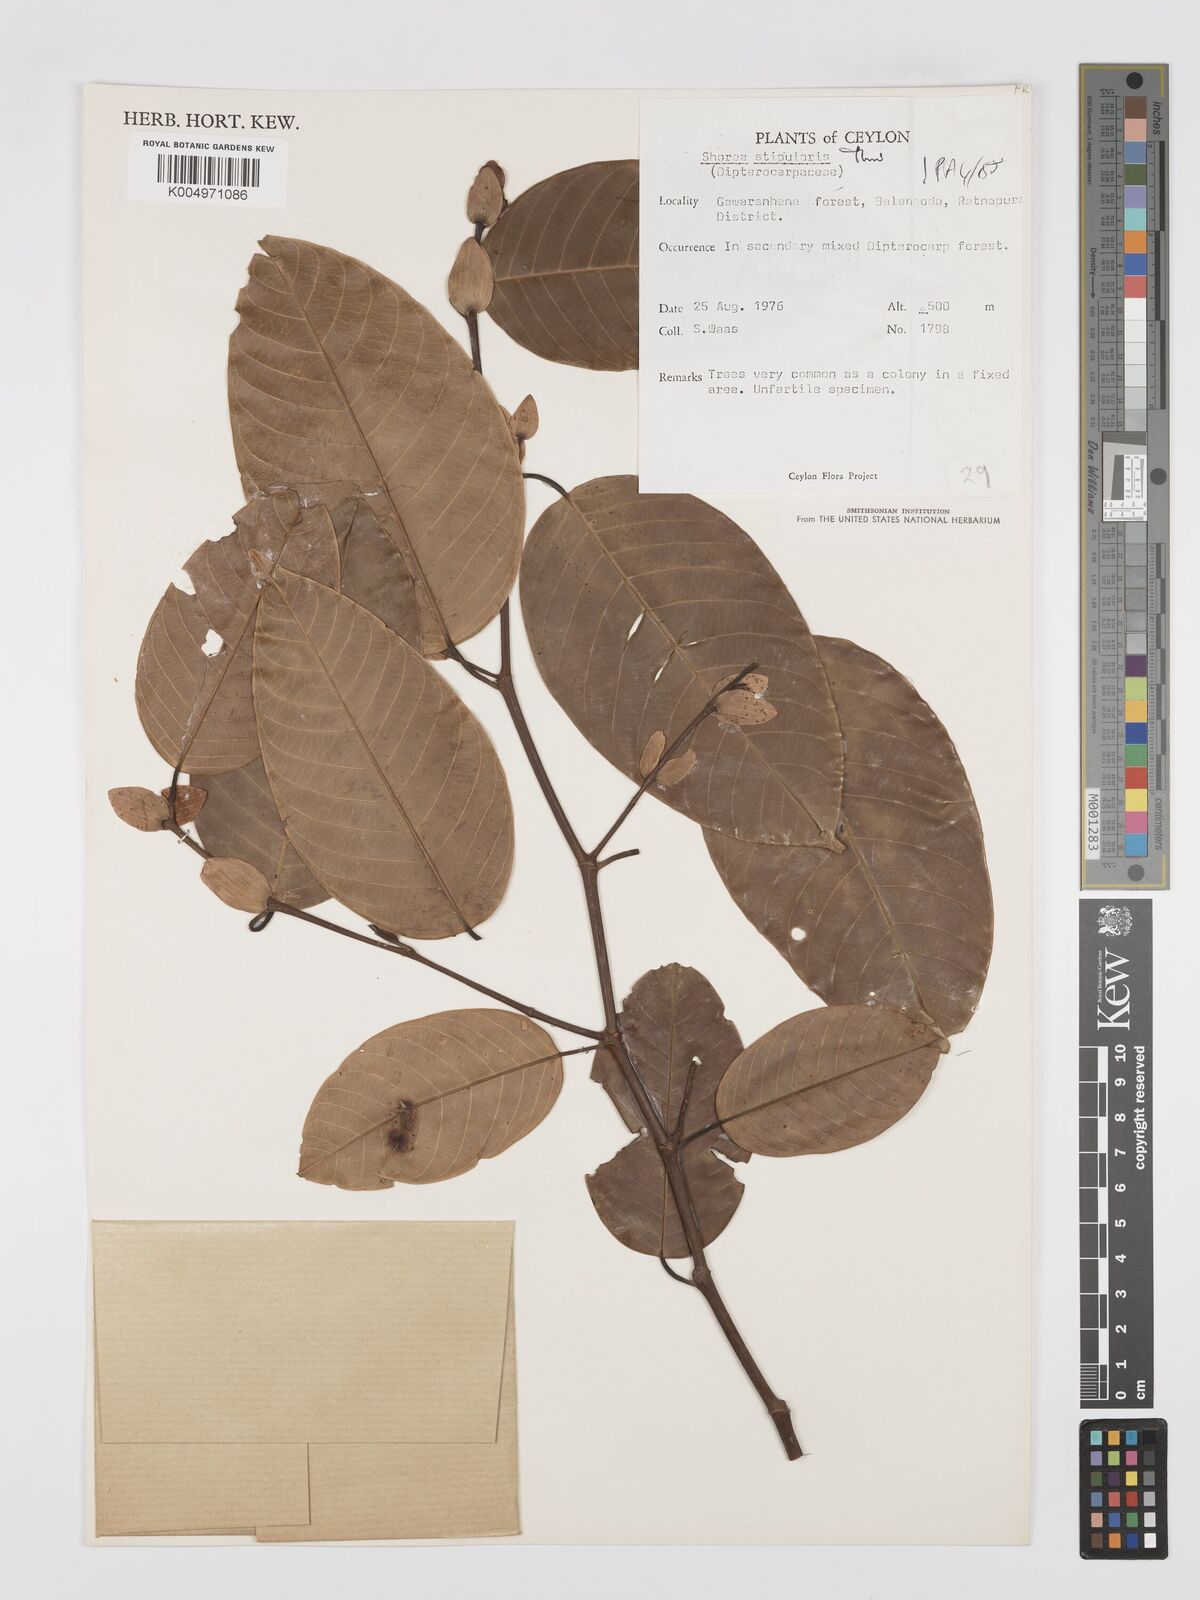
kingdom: Plantae
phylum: Tracheophyta
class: Magnoliopsida
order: Malvales
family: Dipterocarpaceae
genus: Anthoshorea
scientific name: Anthoshorea stipularis
